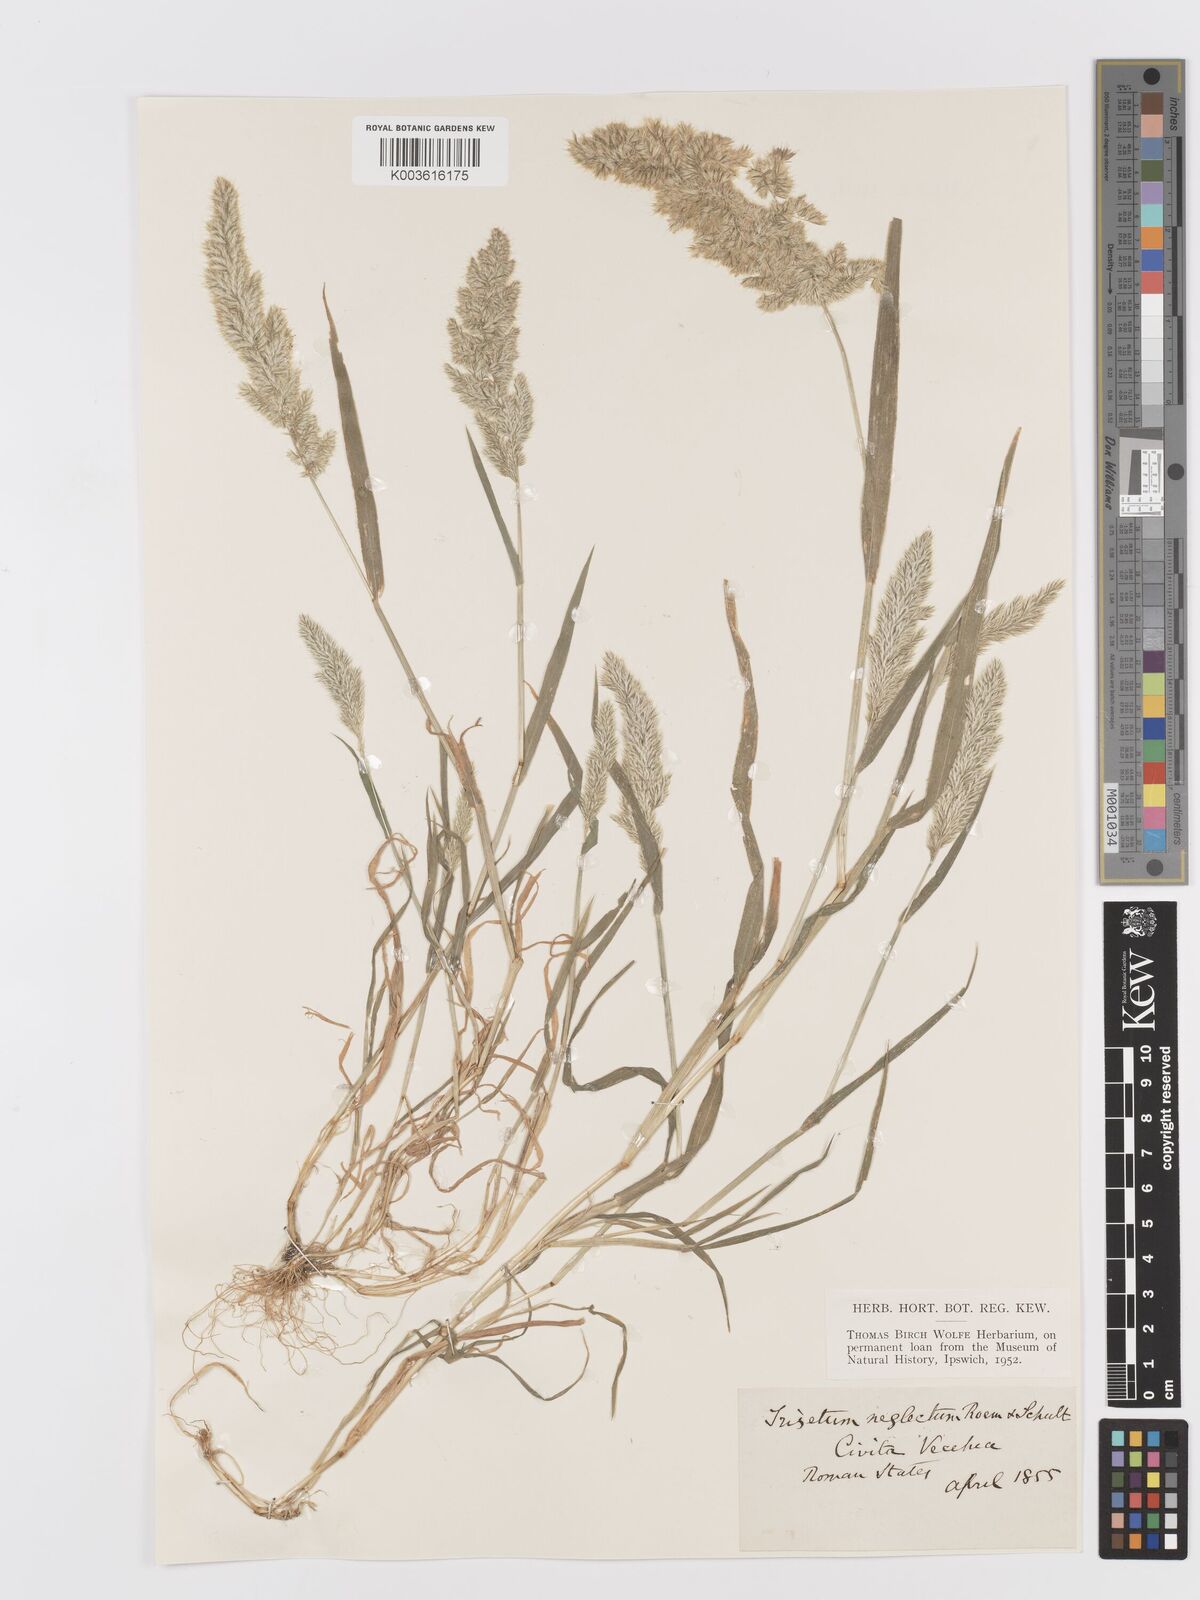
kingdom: Plantae
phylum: Tracheophyta
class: Liliopsida
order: Poales
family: Poaceae
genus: Trisetaria
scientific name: Trisetaria panicea
